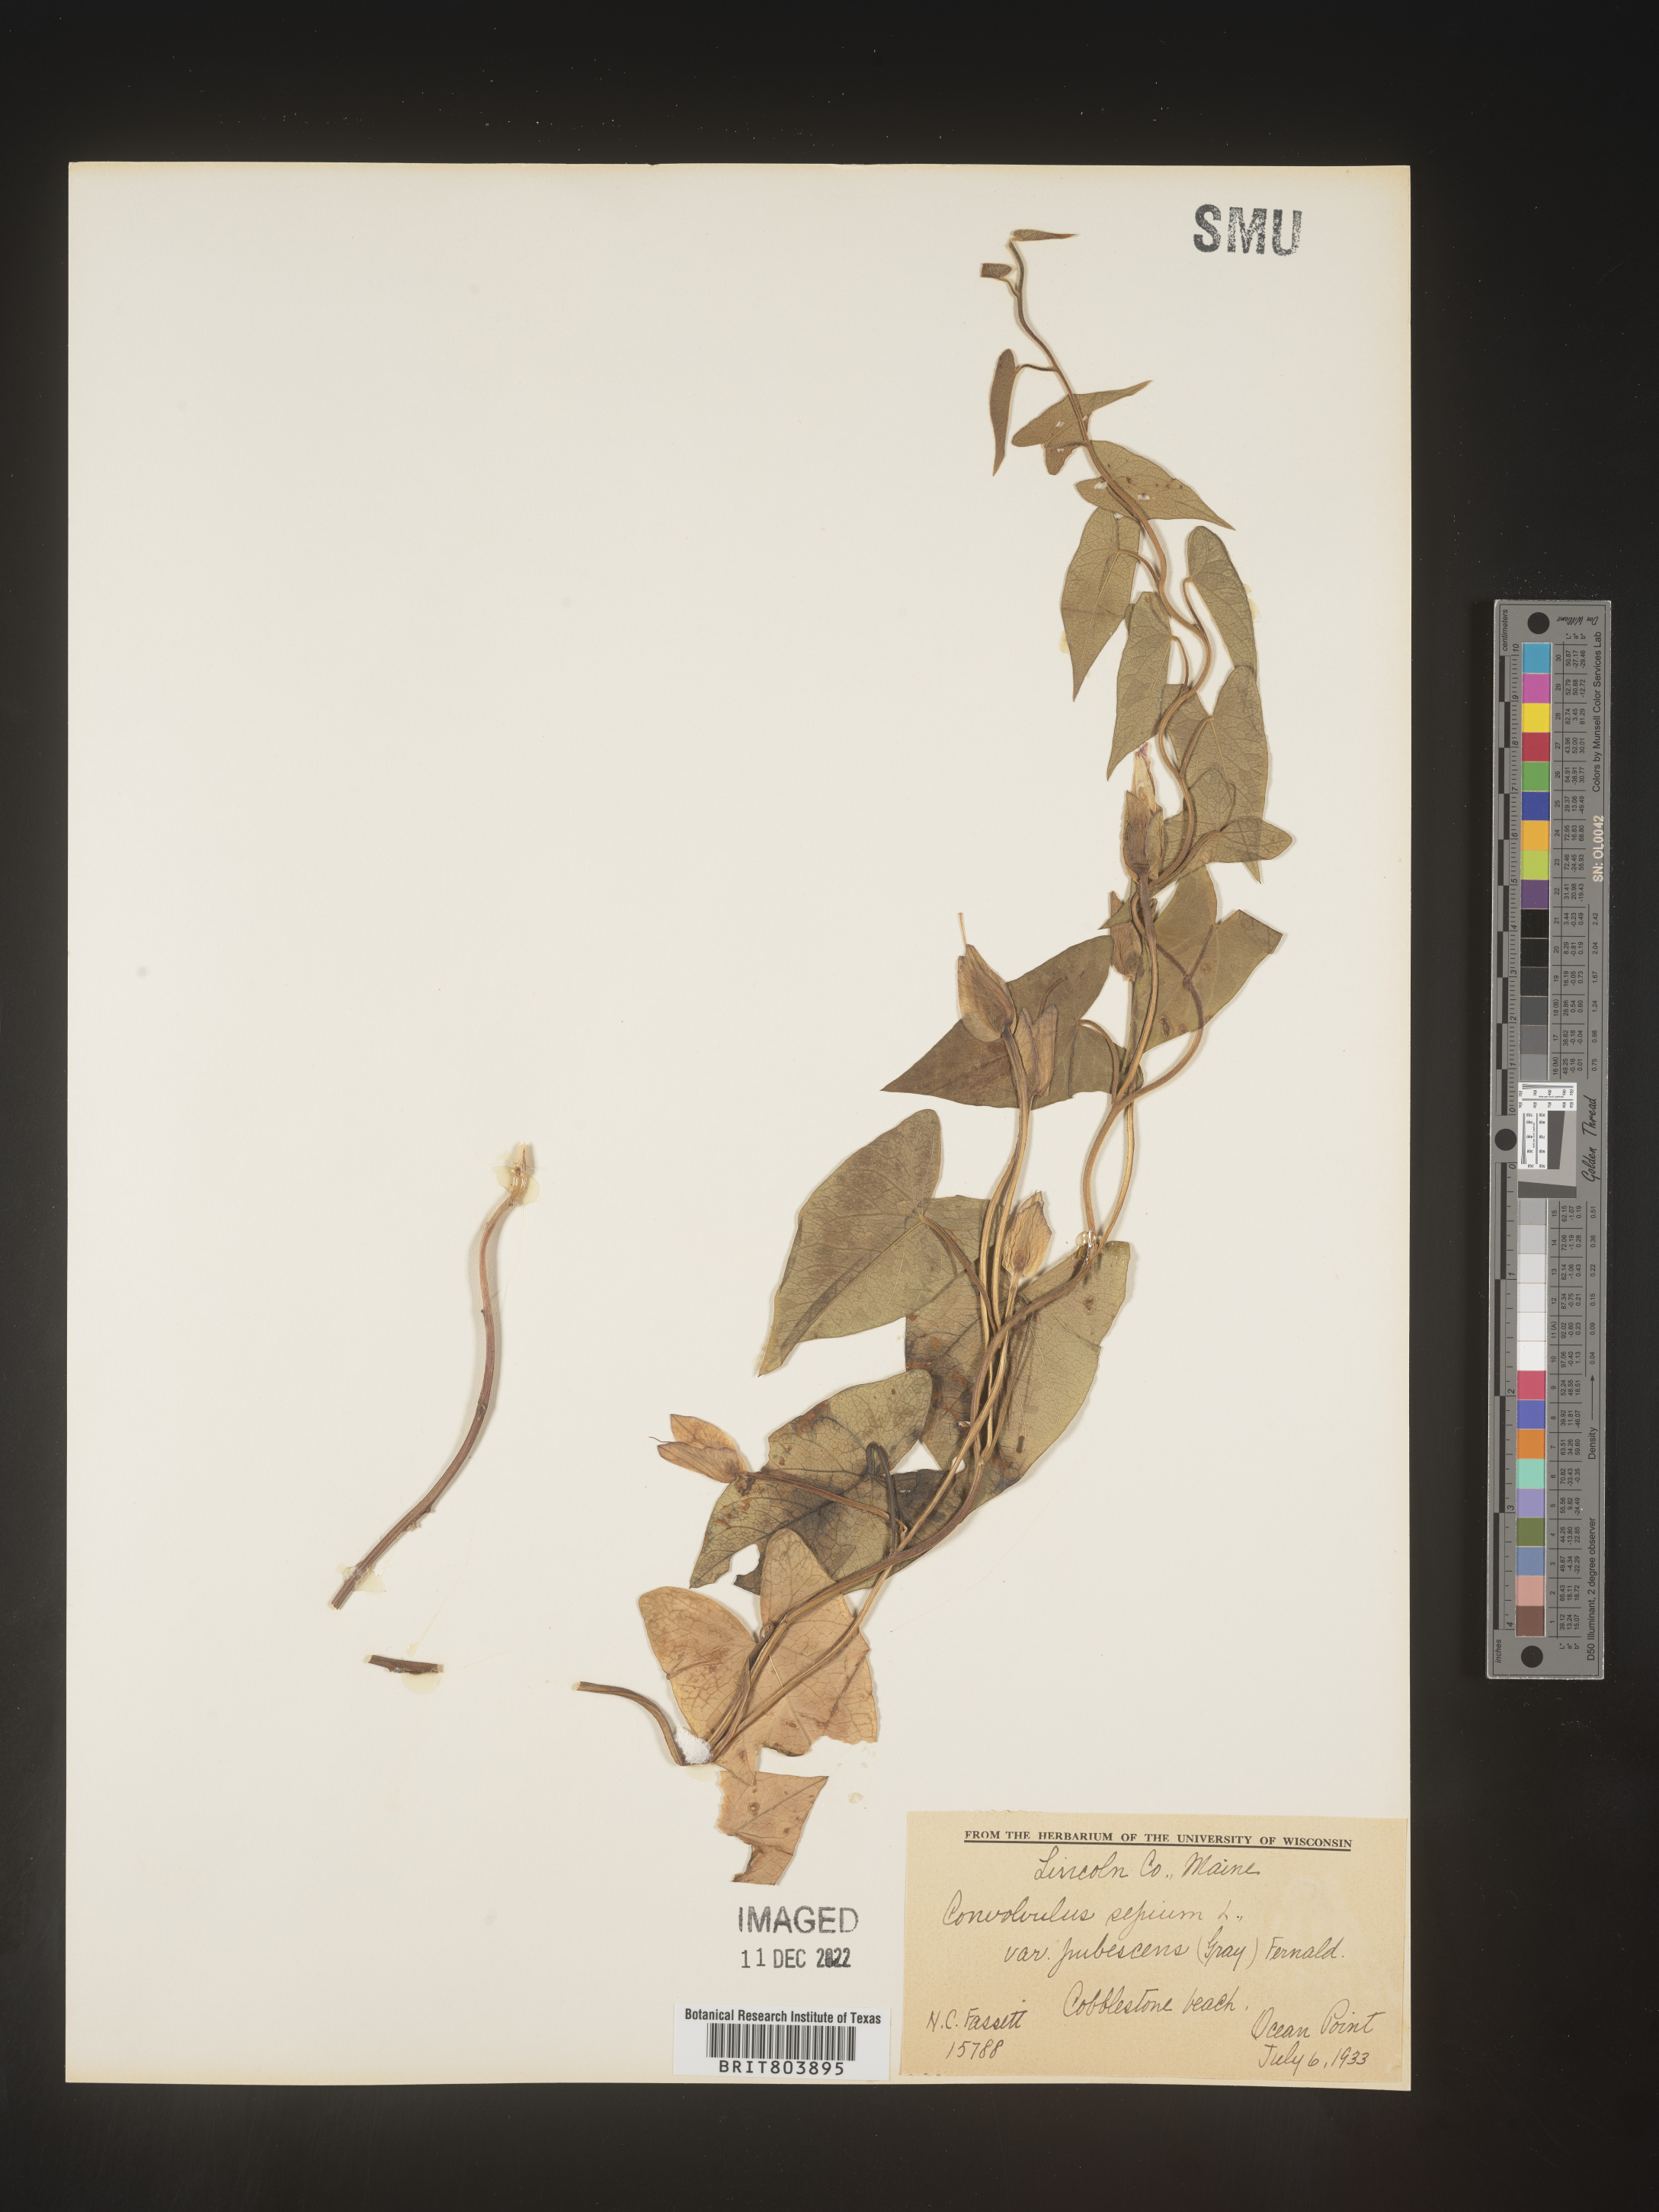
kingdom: Plantae
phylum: Tracheophyta
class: Magnoliopsida
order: Solanales
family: Convolvulaceae
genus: Calystegia
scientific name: Calystegia sepium
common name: Hedge bindweed
